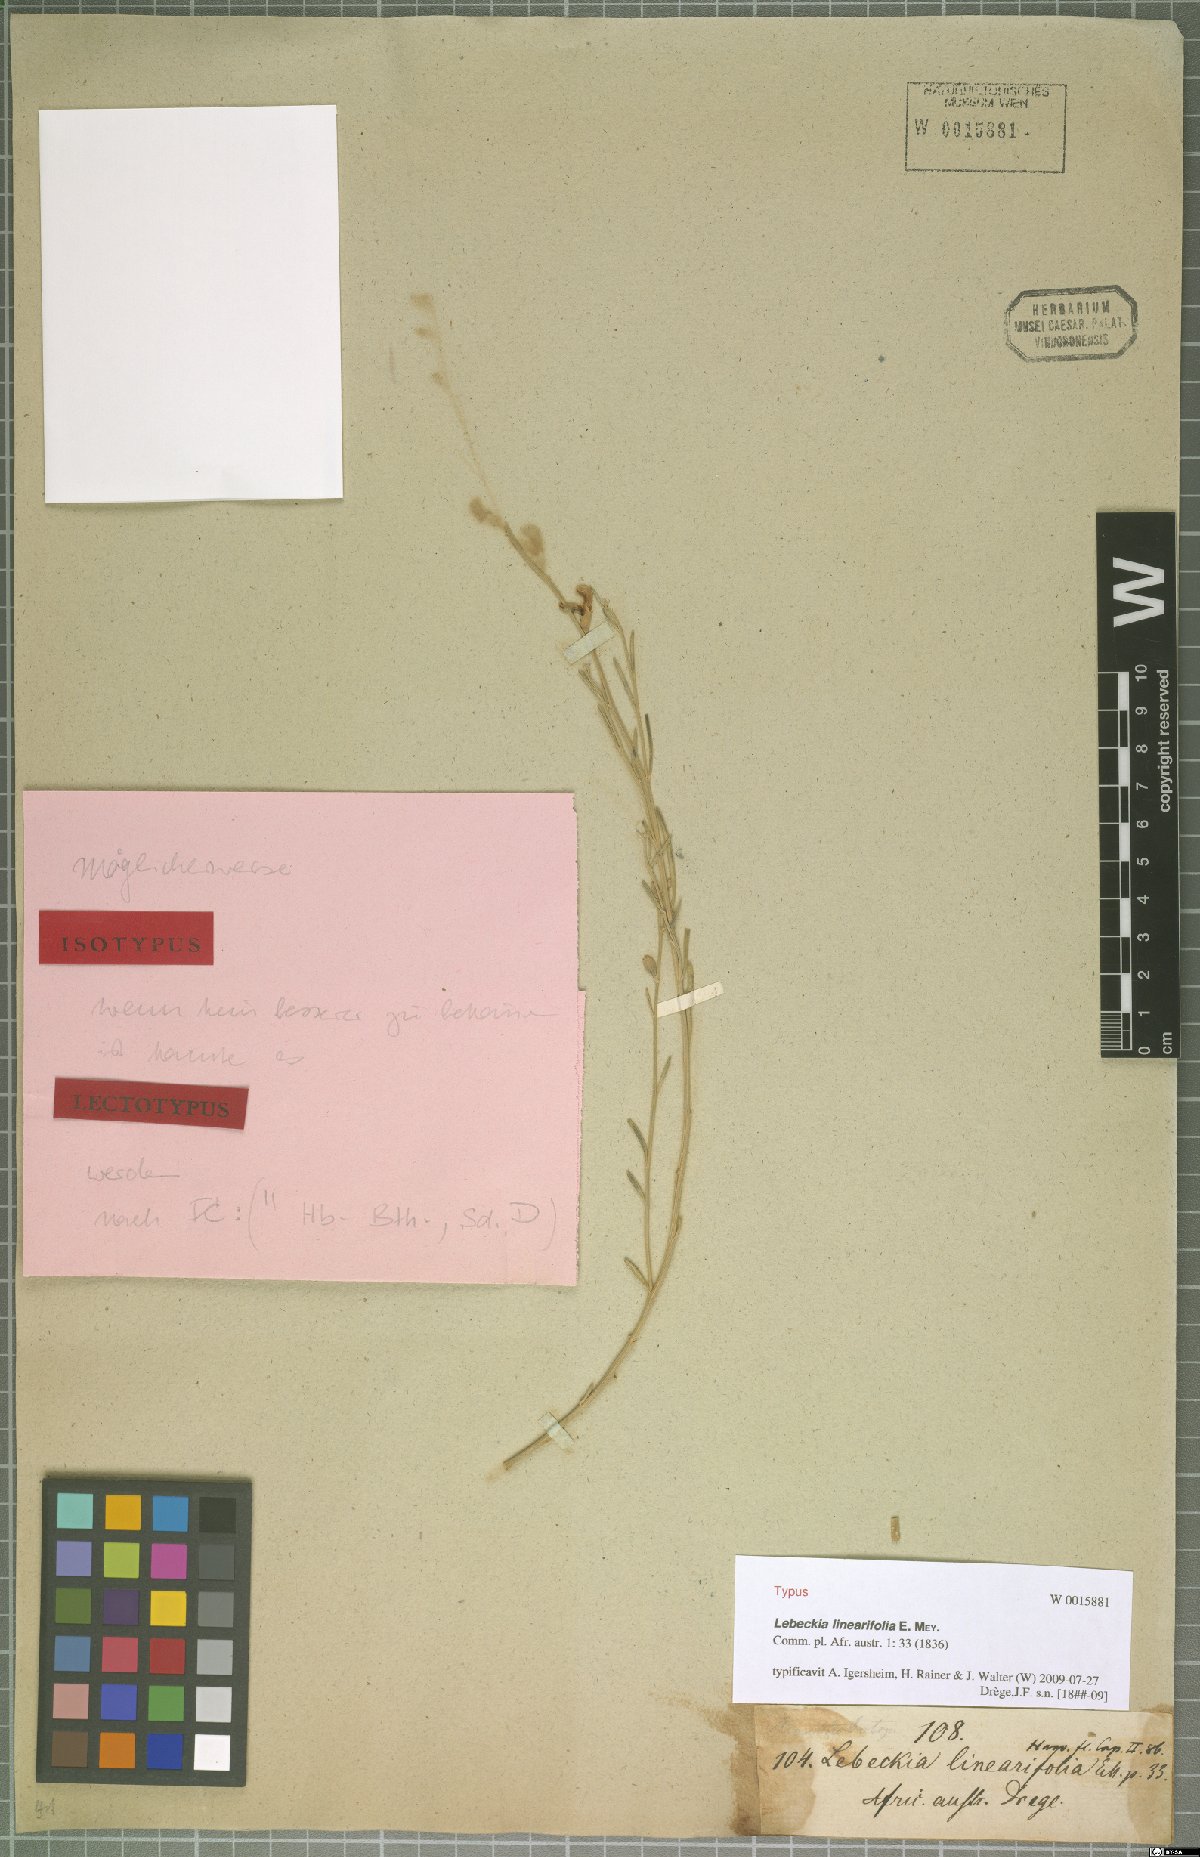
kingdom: Plantae
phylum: Tracheophyta
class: Magnoliopsida
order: Fabales
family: Fabaceae
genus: Calobota
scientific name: Calobota linearifolia
